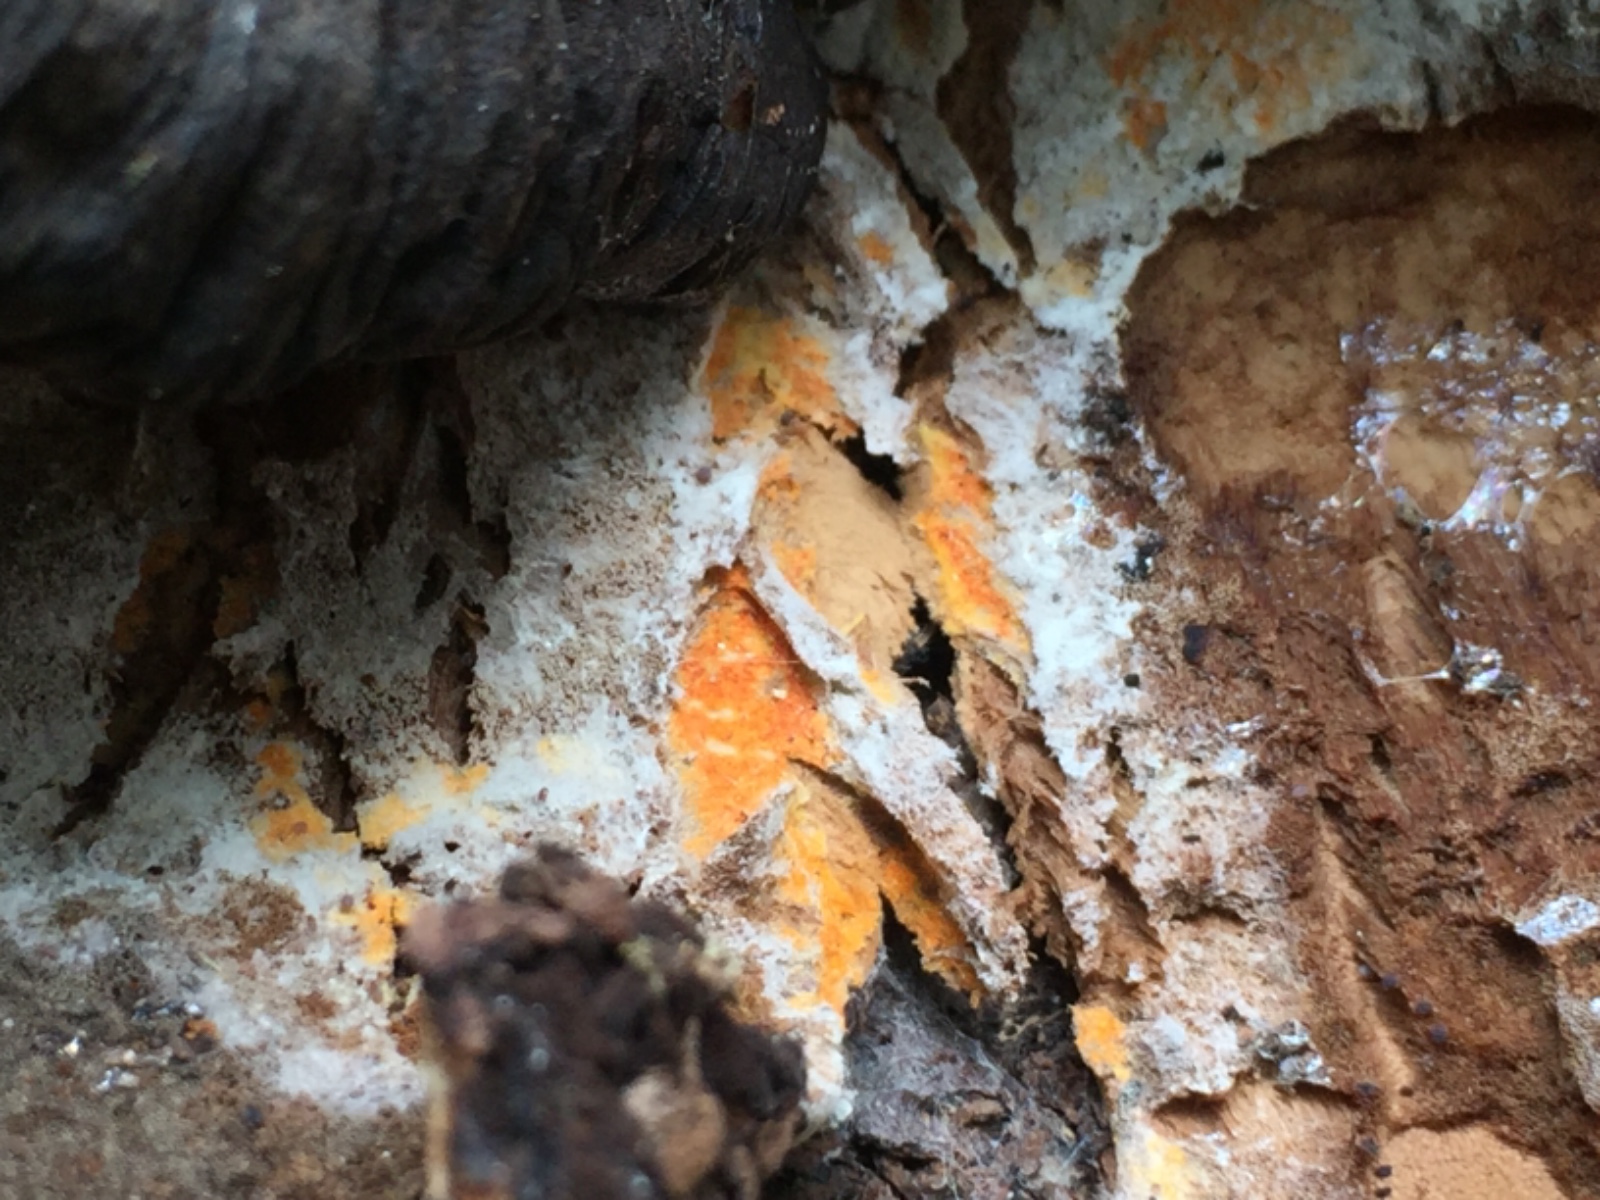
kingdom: Fungi
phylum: Ascomycota
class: Sordariomycetes
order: Hypocreales
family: Hypocreaceae
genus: Hypomyces
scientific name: Hypomyces aurantius
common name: almindelig snylteskorpe
